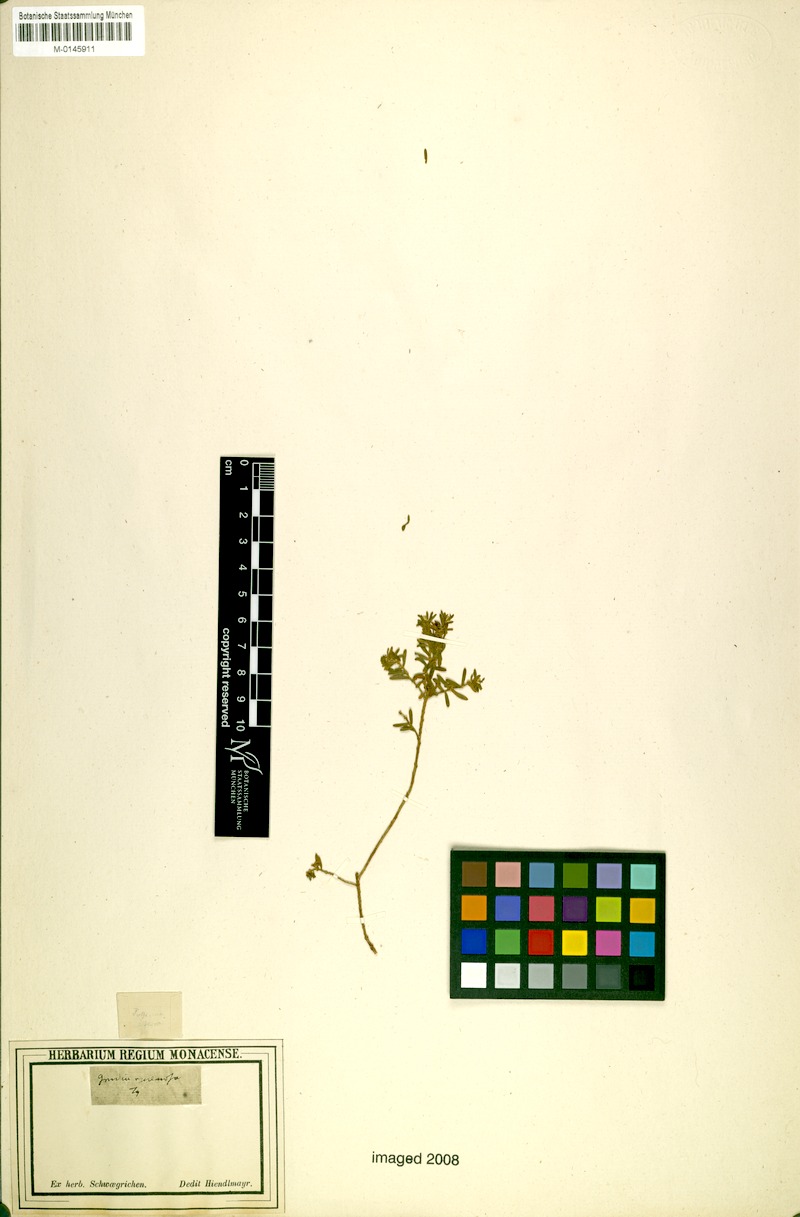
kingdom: Plantae
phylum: Tracheophyta
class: Magnoliopsida
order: Malvales
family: Thymelaeaceae
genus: Gnidia
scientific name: Gnidia racemosa
